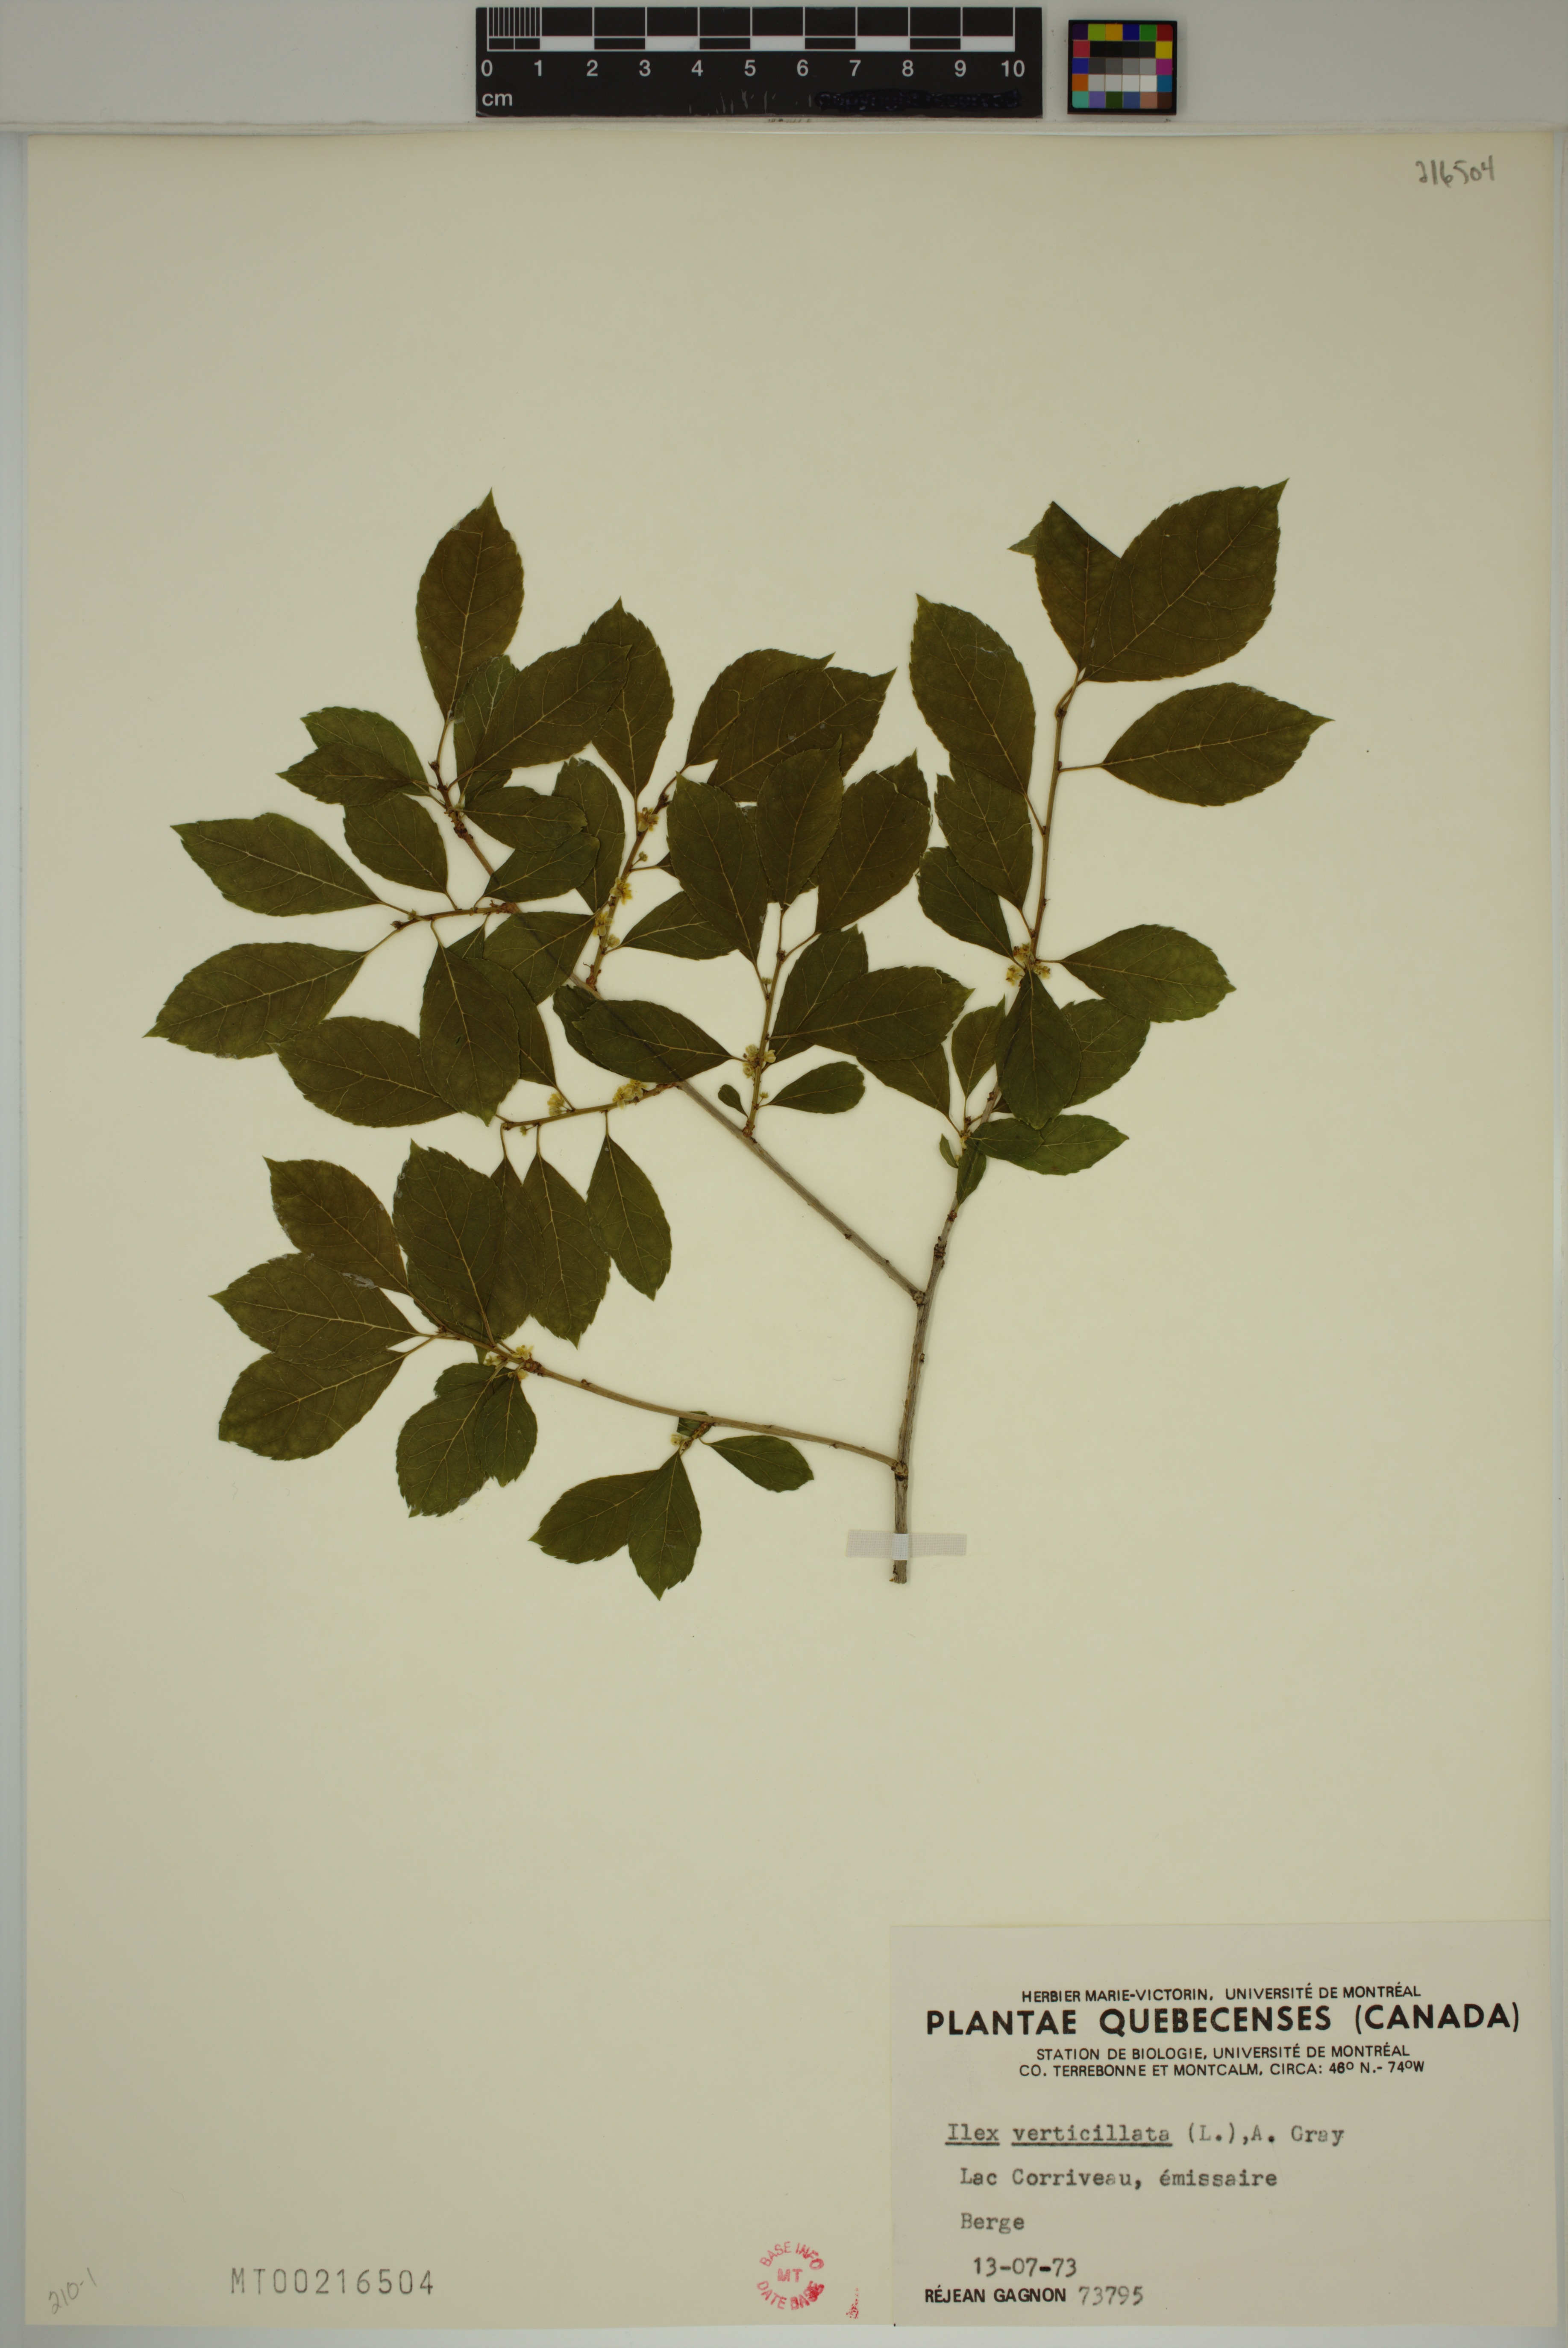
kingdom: Plantae
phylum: Tracheophyta
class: Magnoliopsida
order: Aquifoliales
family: Aquifoliaceae
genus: Ilex
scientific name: Ilex verticillata
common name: Virginia winterberry
